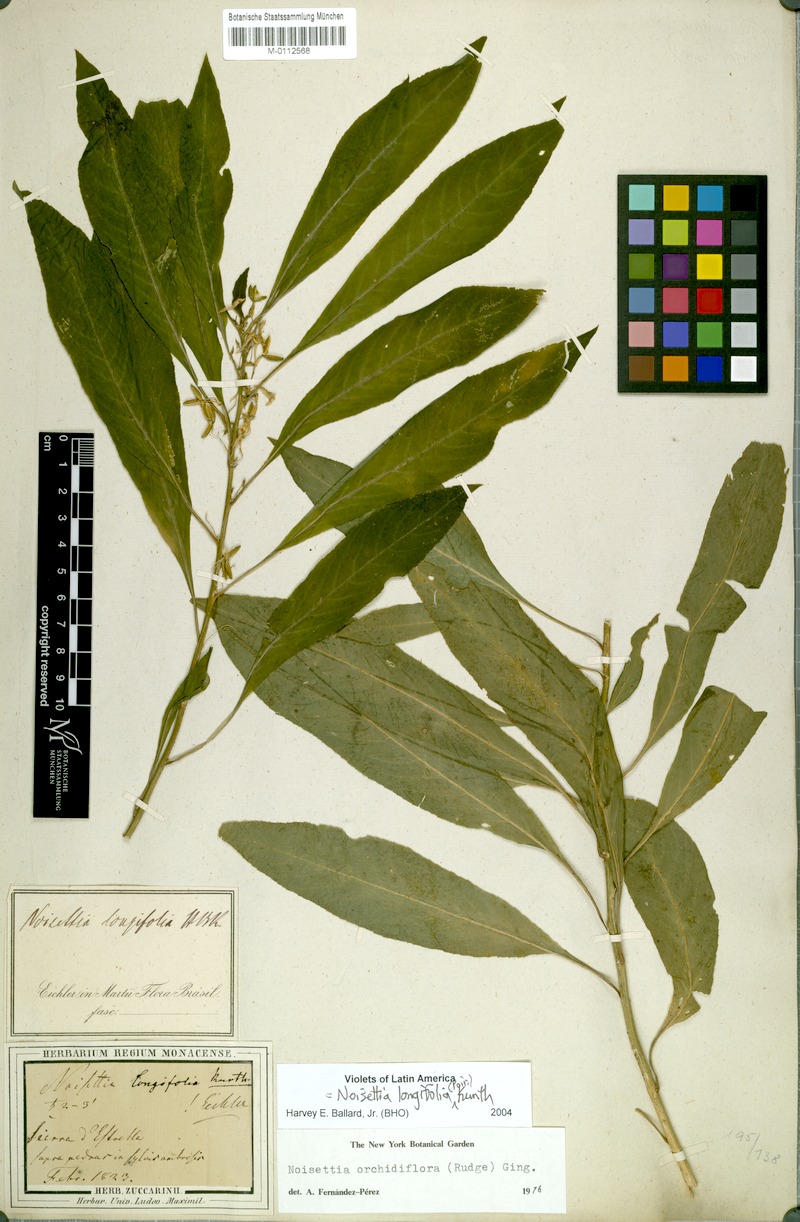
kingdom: Plantae
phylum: Tracheophyta
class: Magnoliopsida
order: Malpighiales
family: Violaceae
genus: Noisettia
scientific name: Noisettia orchidiflora
